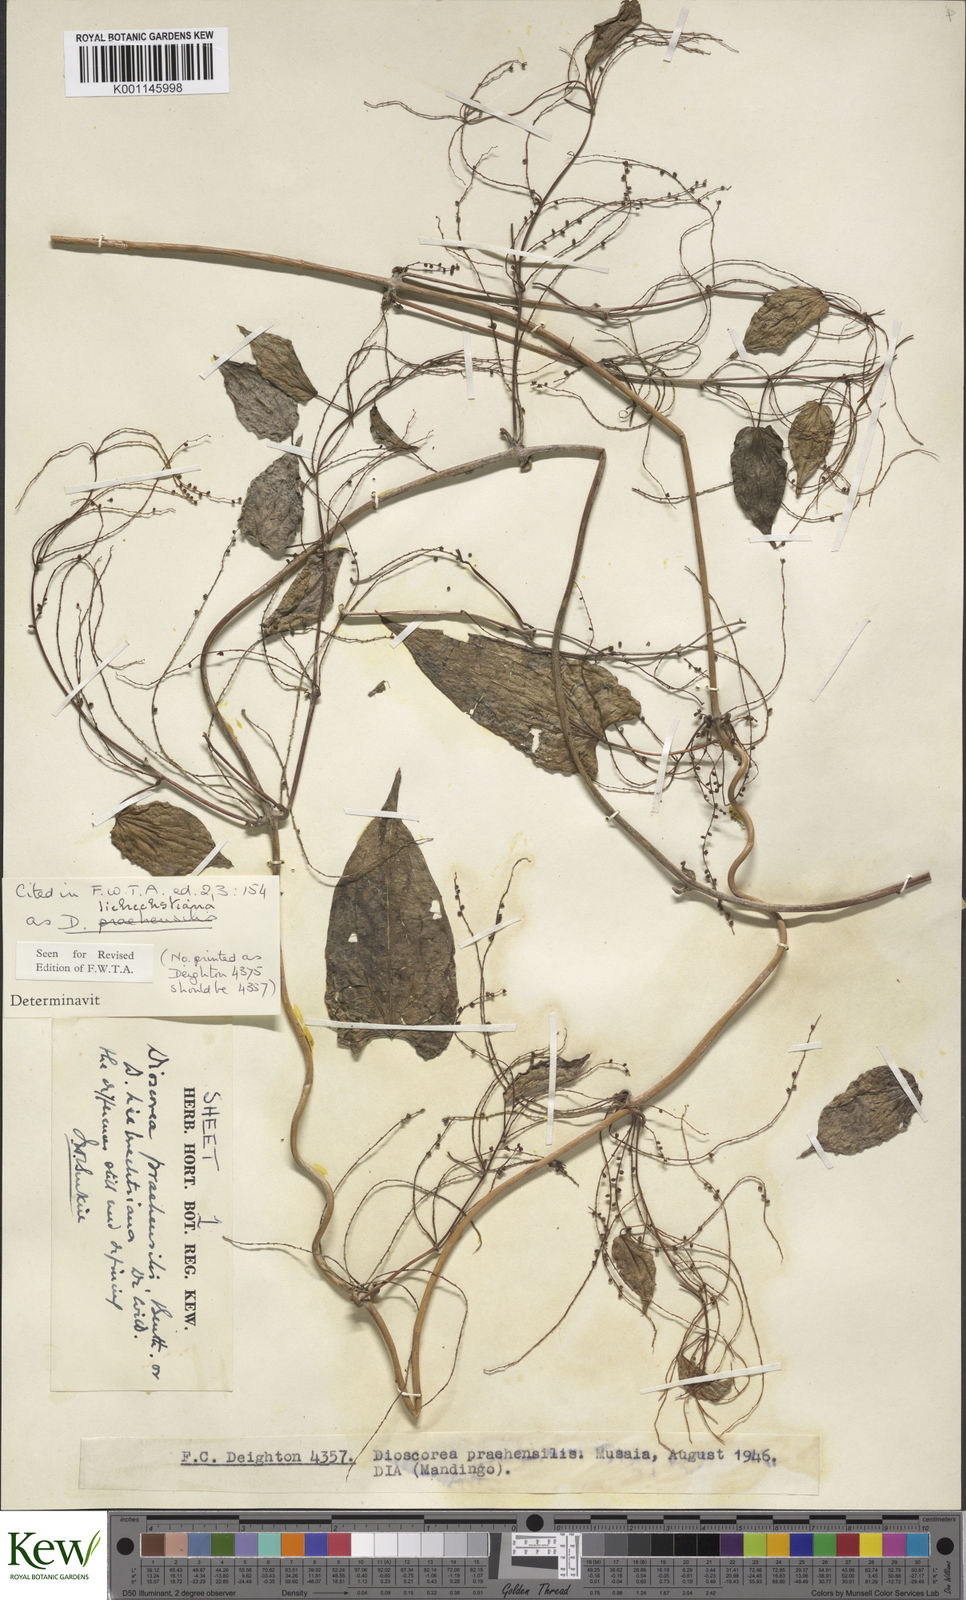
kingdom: Plantae
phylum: Tracheophyta
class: Liliopsida
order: Dioscoreales
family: Dioscoreaceae
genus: Dioscorea
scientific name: Dioscorea praehensilis
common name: Bush yam
